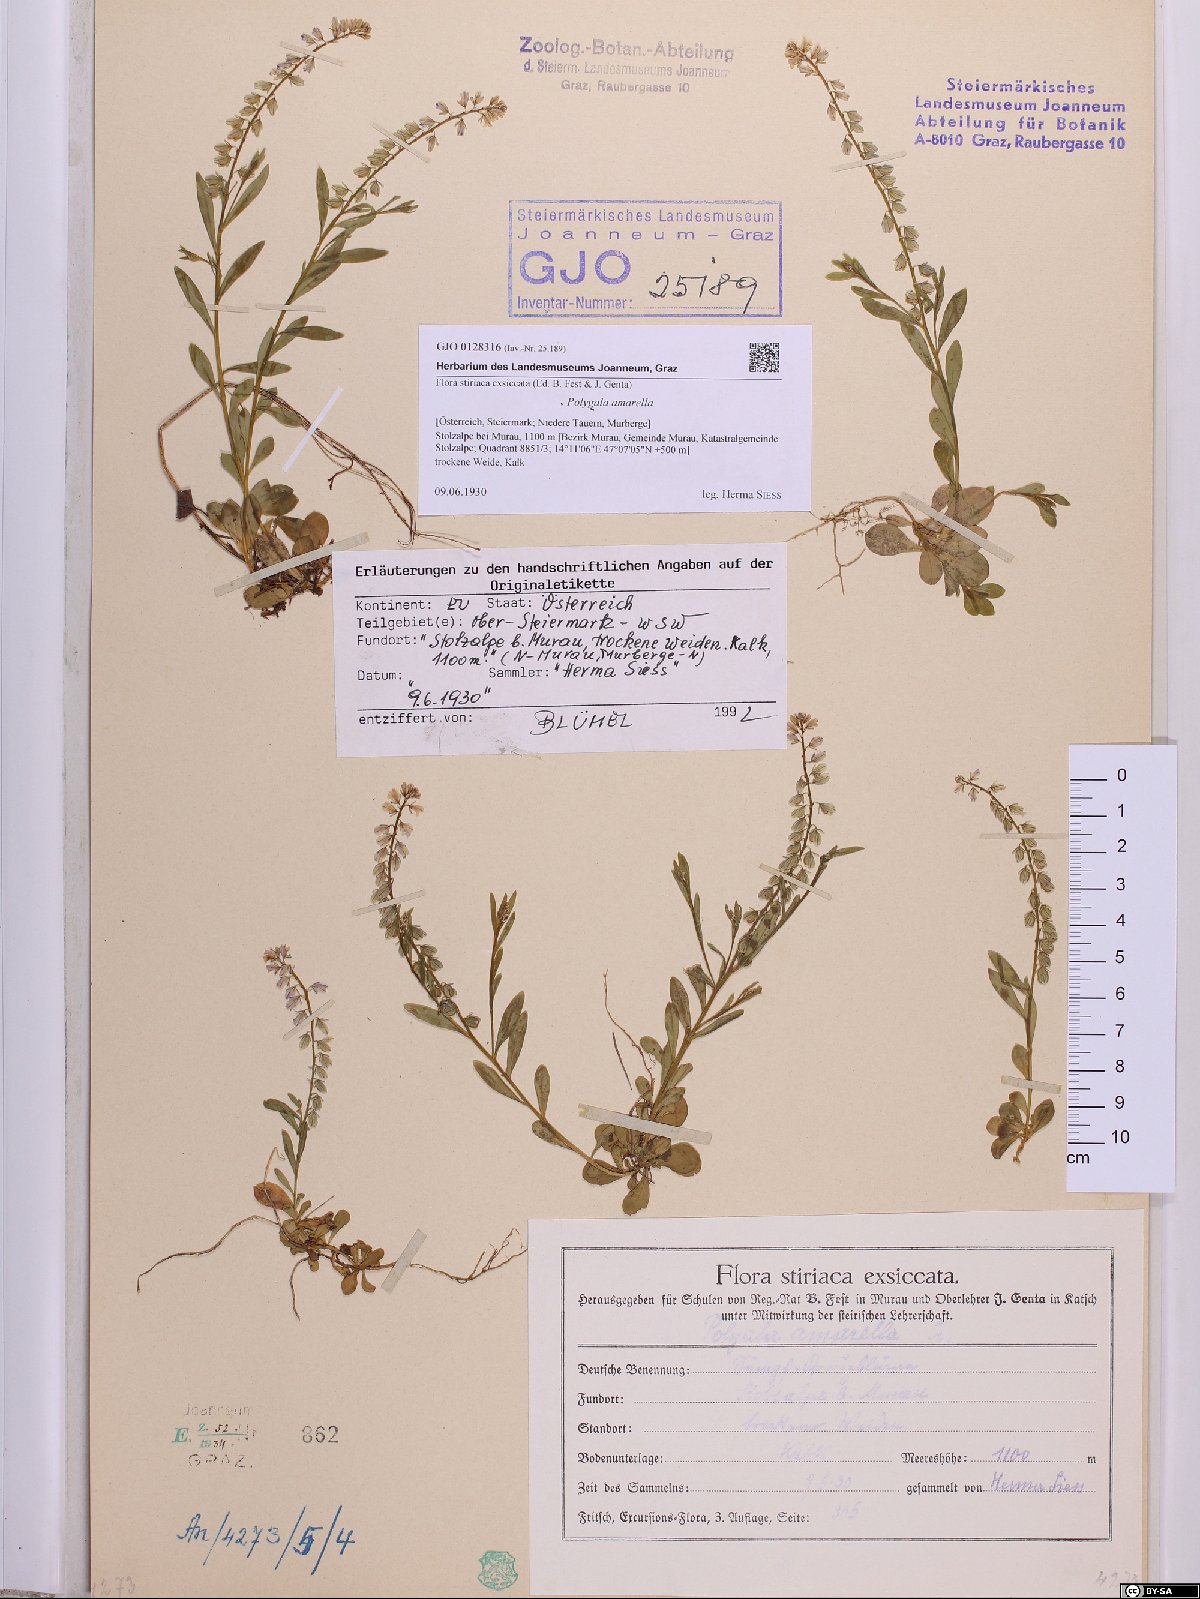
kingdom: Plantae
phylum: Tracheophyta
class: Magnoliopsida
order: Fabales
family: Polygalaceae
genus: Polygala
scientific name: Polygala amarella
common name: Dwarf milkwort
